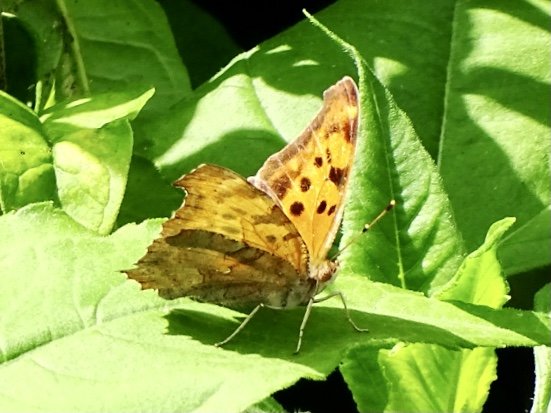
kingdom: Animalia
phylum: Arthropoda
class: Insecta
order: Lepidoptera
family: Nymphalidae
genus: Polygonia
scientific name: Polygonia interrogationis
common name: Question Mark
